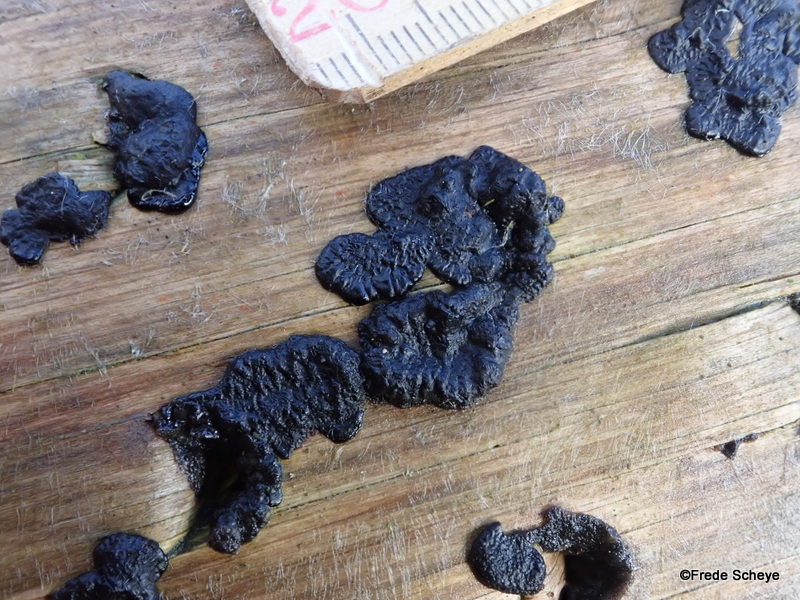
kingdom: Fungi
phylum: Basidiomycota
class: Agaricomycetes
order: Auriculariales
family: Auriculariaceae
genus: Exidia
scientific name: Exidia pithya
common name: gran-bævretop
